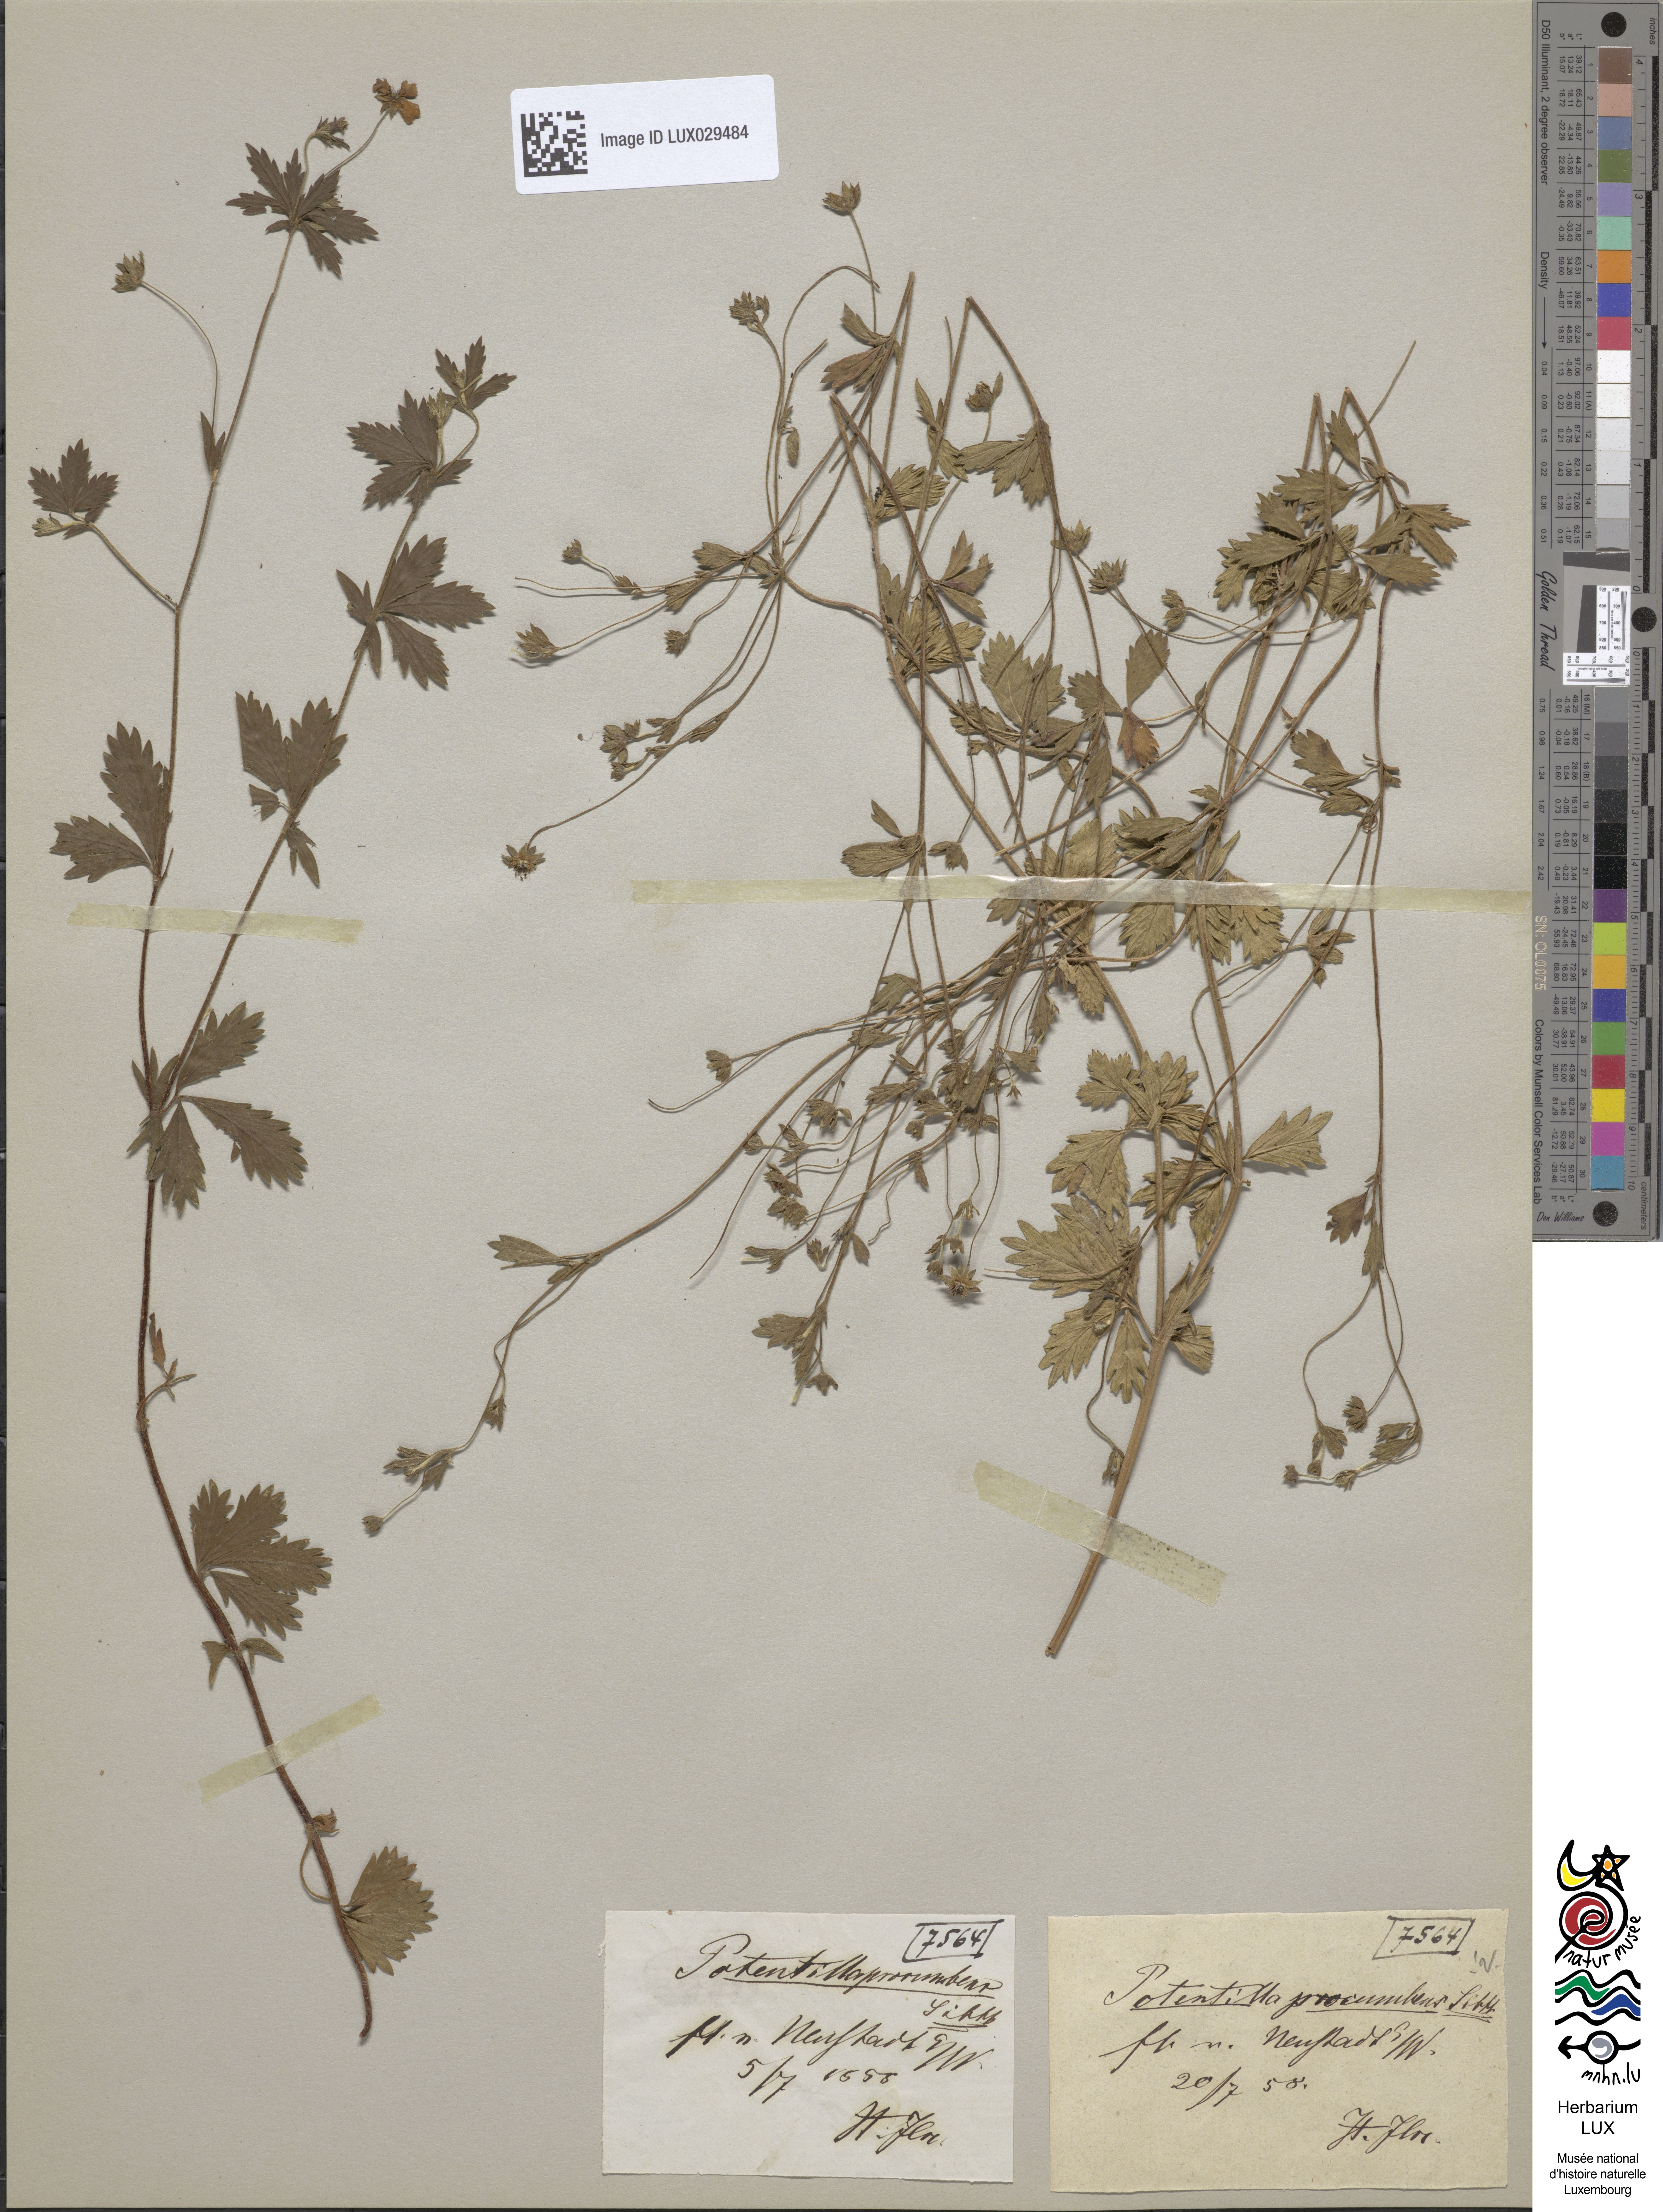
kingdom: Plantae
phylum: Tracheophyta
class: Magnoliopsida
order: Rosales
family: Rosaceae
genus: Potentilla
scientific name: Potentilla anglica
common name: Trailing tormentil
